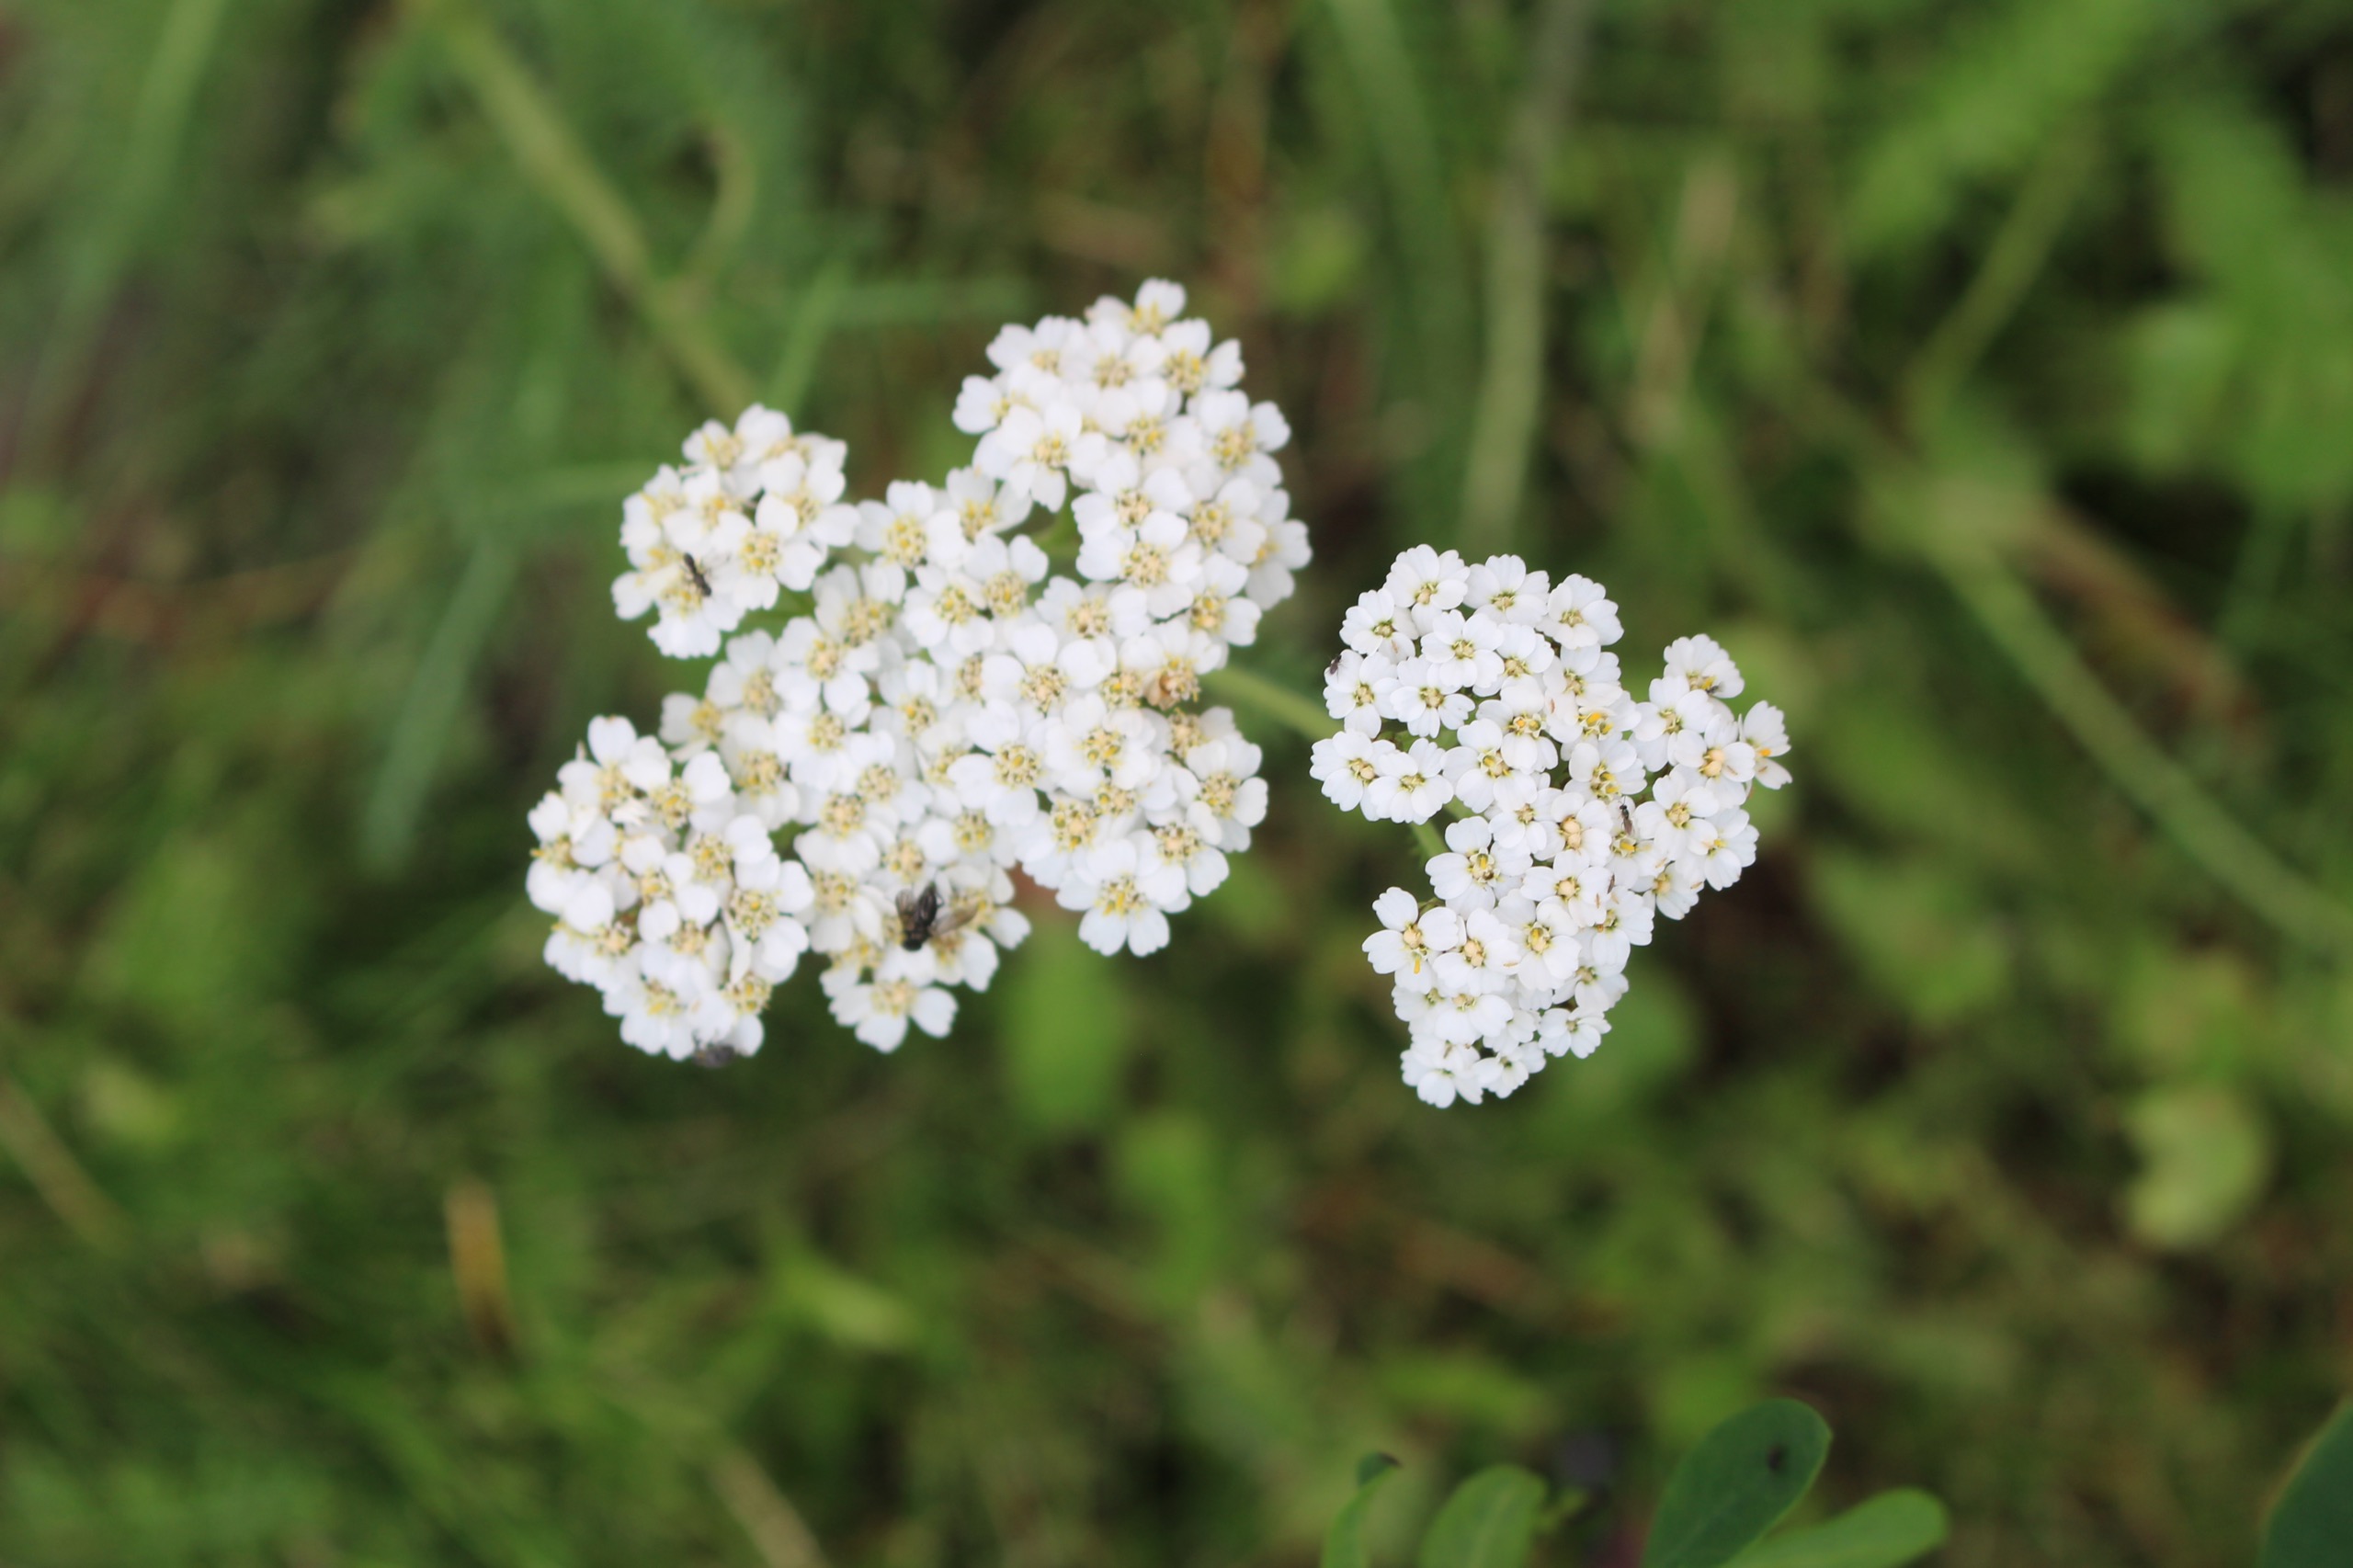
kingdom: Plantae
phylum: Tracheophyta
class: Magnoliopsida
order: Asterales
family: Asteraceae
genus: Achillea
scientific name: Achillea millefolium
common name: Almindelig røllike
